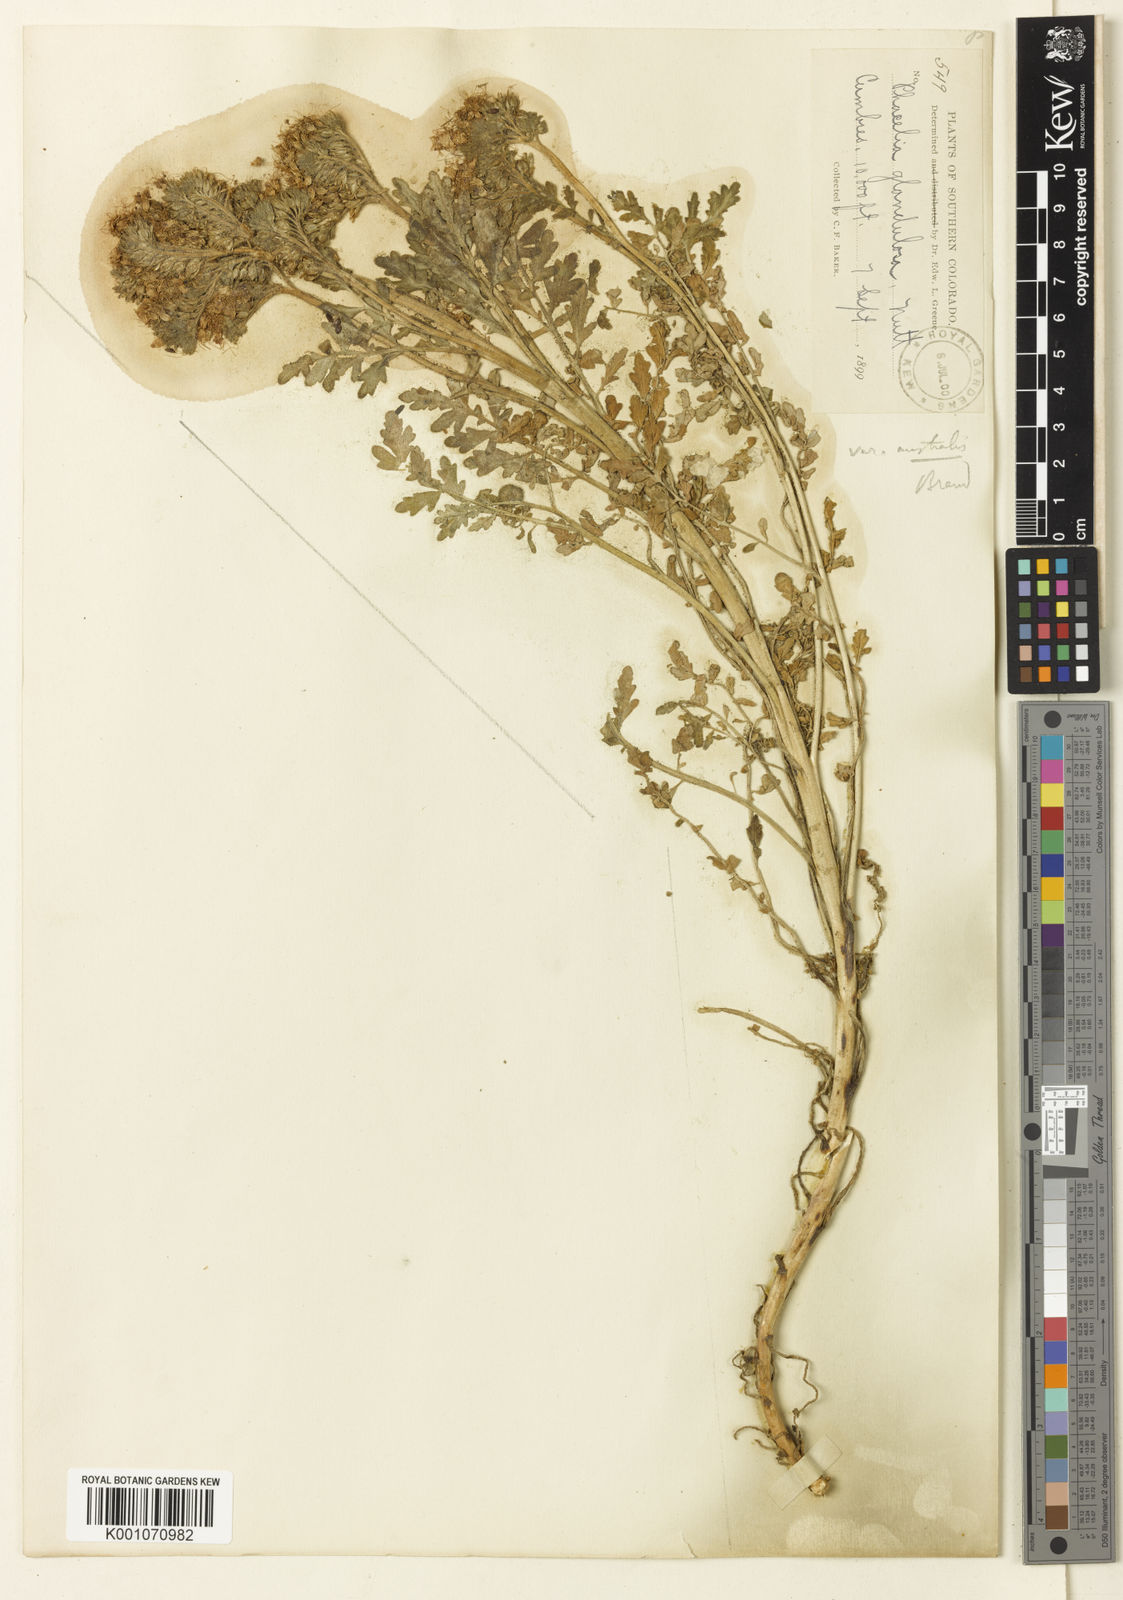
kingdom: Plantae
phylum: Tracheophyta
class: Magnoliopsida
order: Boraginales
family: Hydrophyllaceae
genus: Phacelia
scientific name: Phacelia glandulosa
